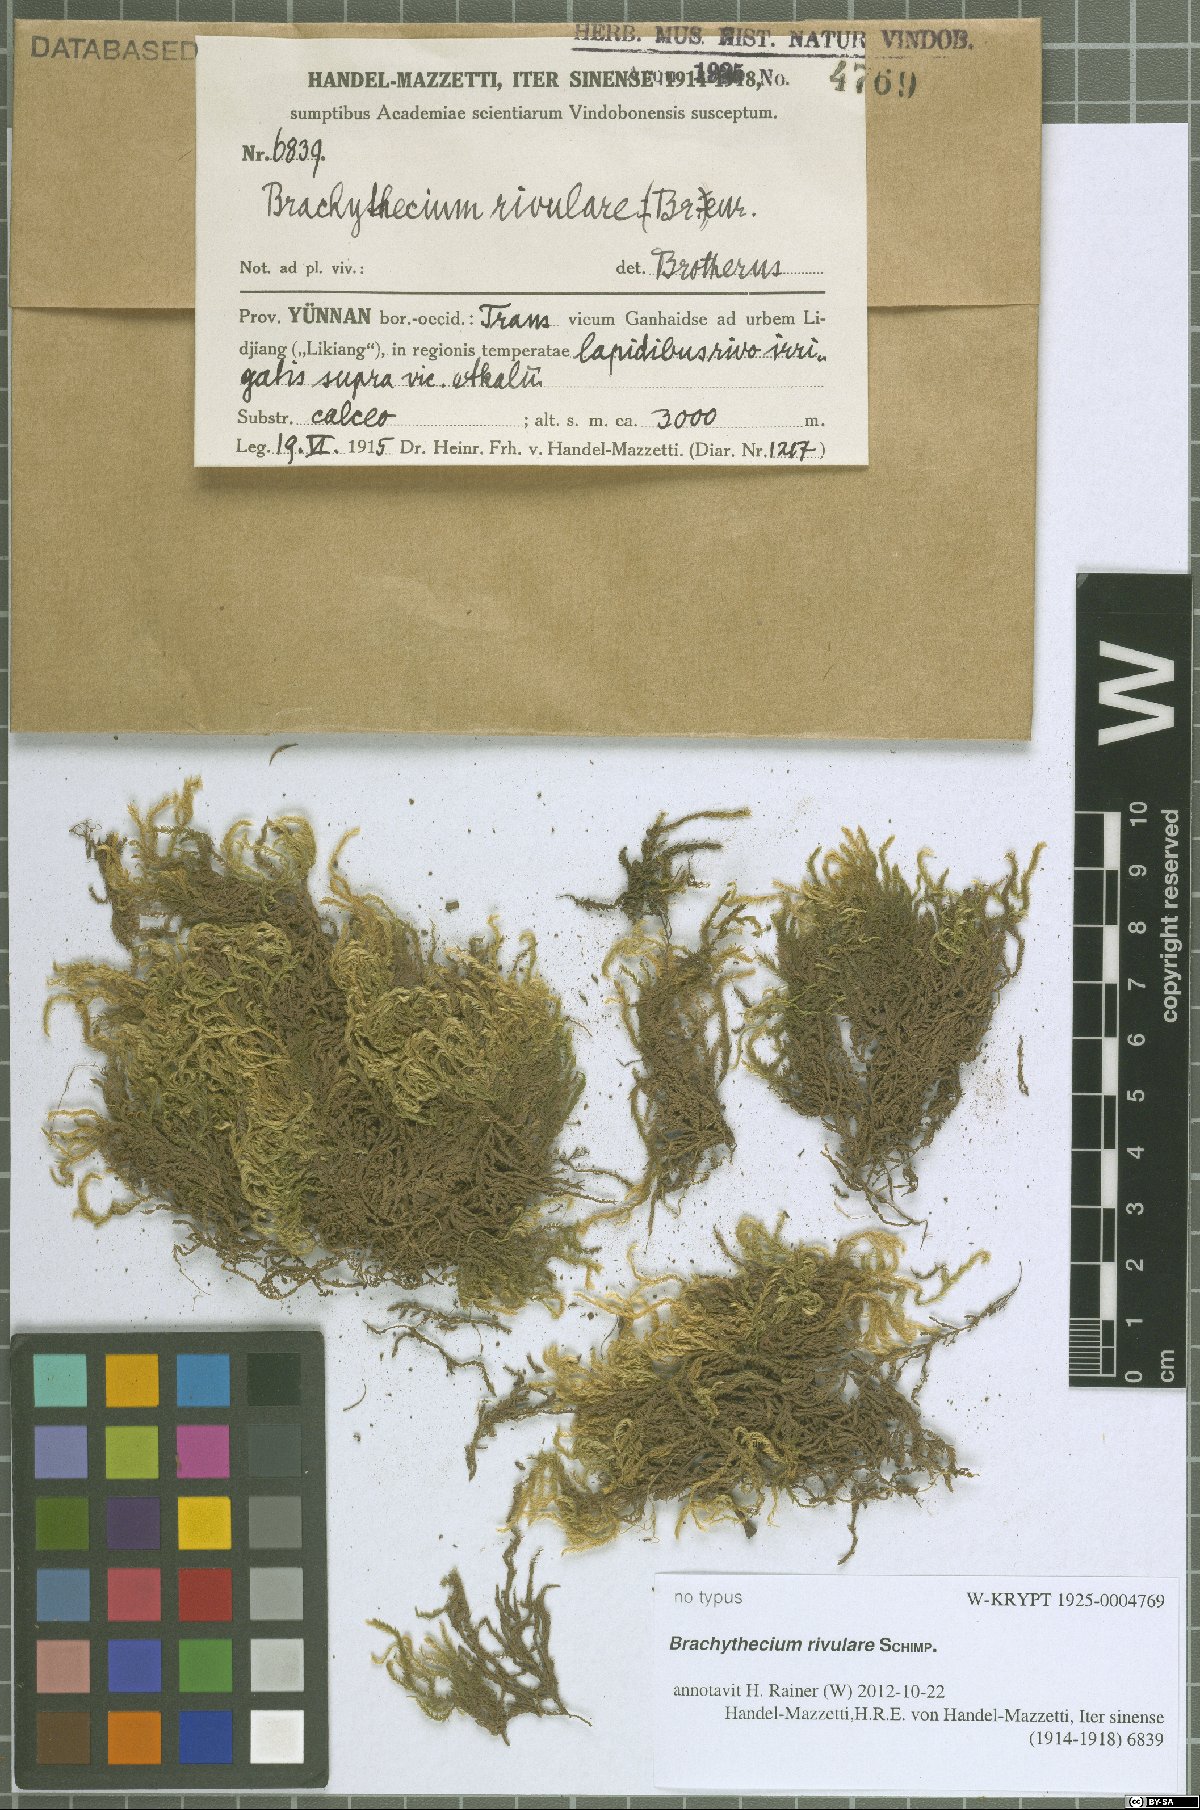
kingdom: Plantae
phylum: Bryophyta
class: Bryopsida
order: Hypnales
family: Brachytheciaceae
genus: Brachythecium
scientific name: Brachythecium rivulare
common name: River ragged moss
